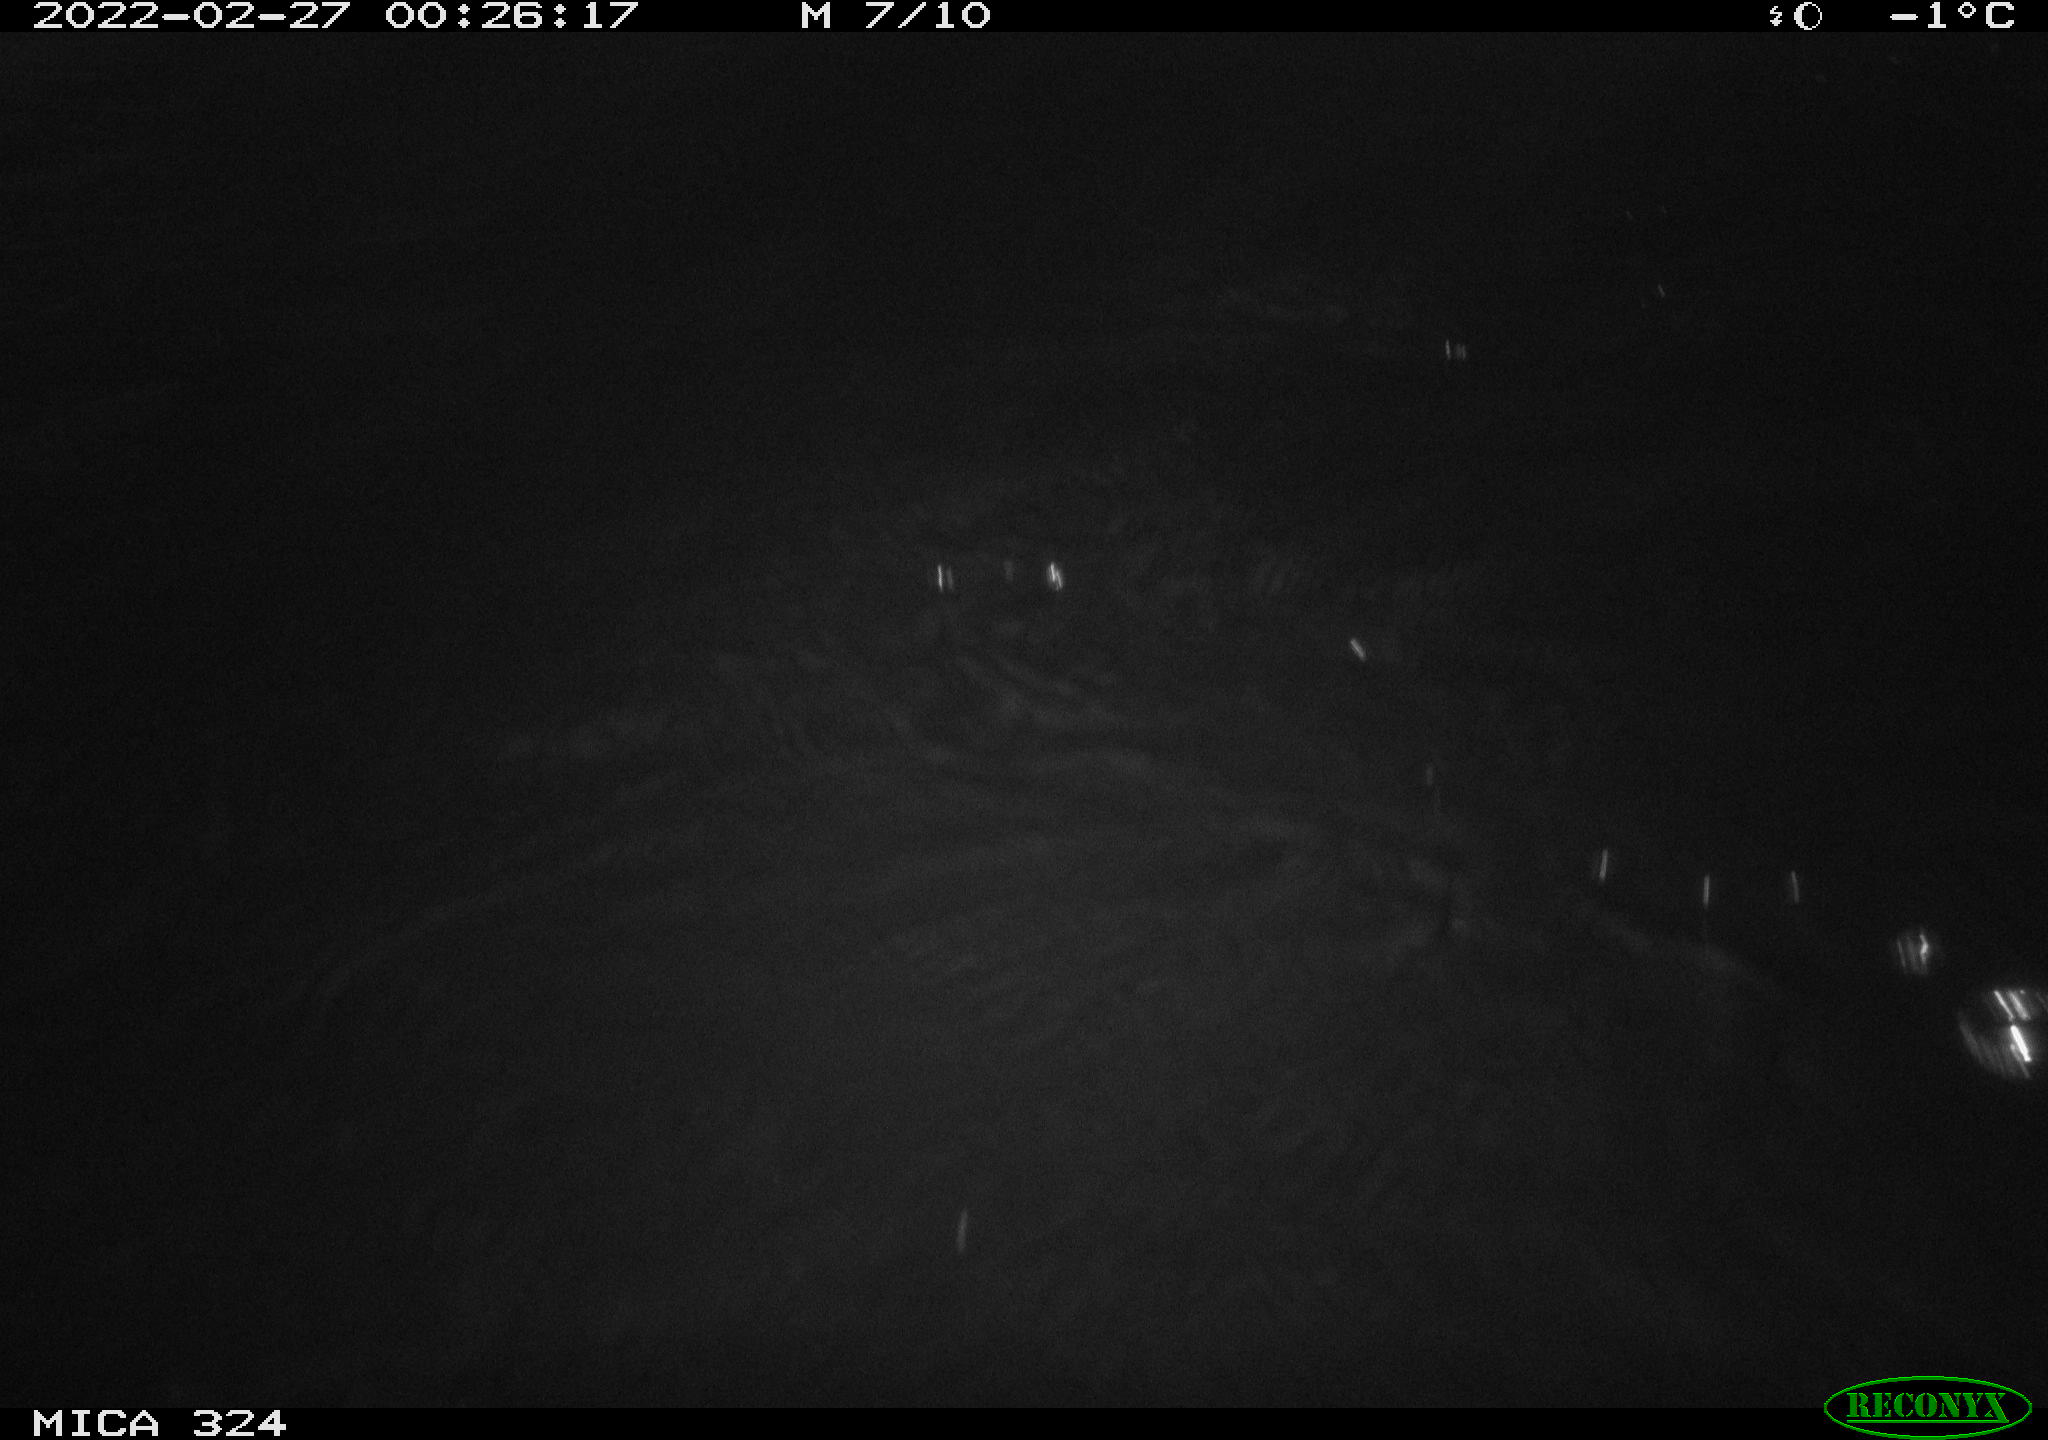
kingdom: Animalia
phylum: Chordata
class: Mammalia
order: Rodentia
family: Cricetidae
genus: Ondatra
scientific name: Ondatra zibethicus
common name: Muskrat
